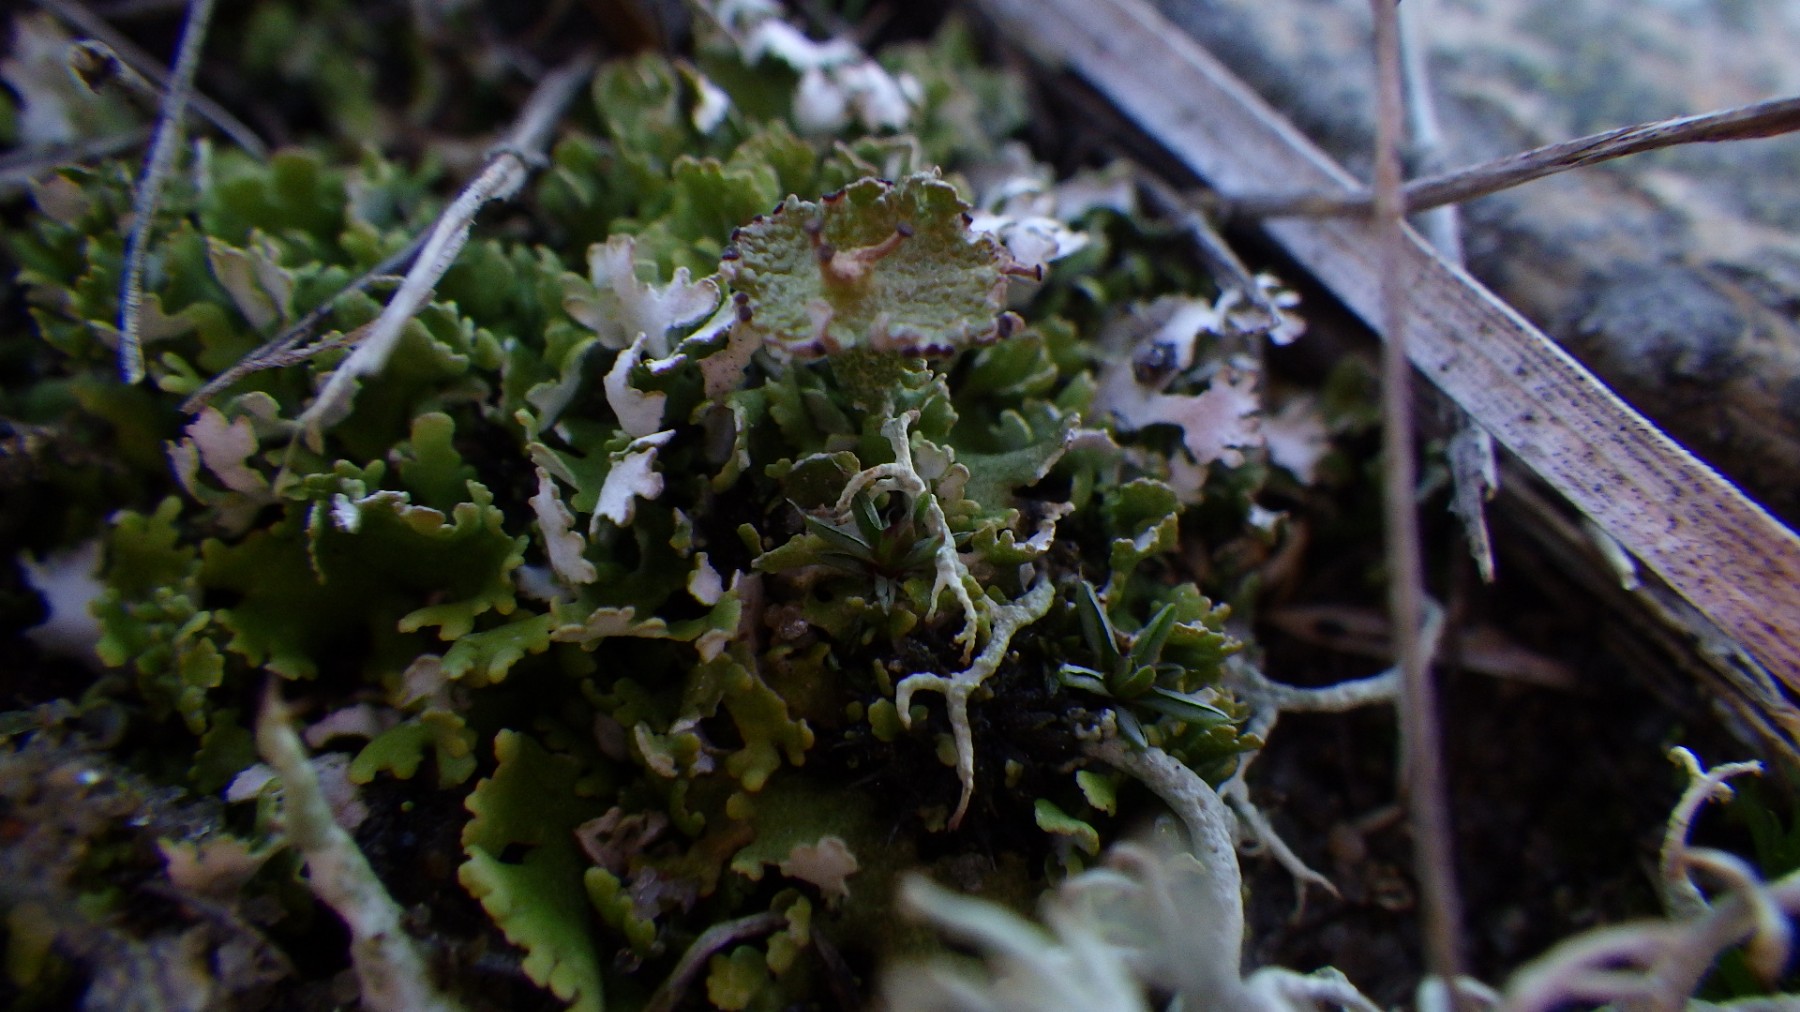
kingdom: Fungi
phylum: Ascomycota
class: Lecanoromycetes
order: Lecanorales
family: Cladoniaceae
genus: Cladonia
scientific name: Cladonia cervicornis
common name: gevir-bægerlav
